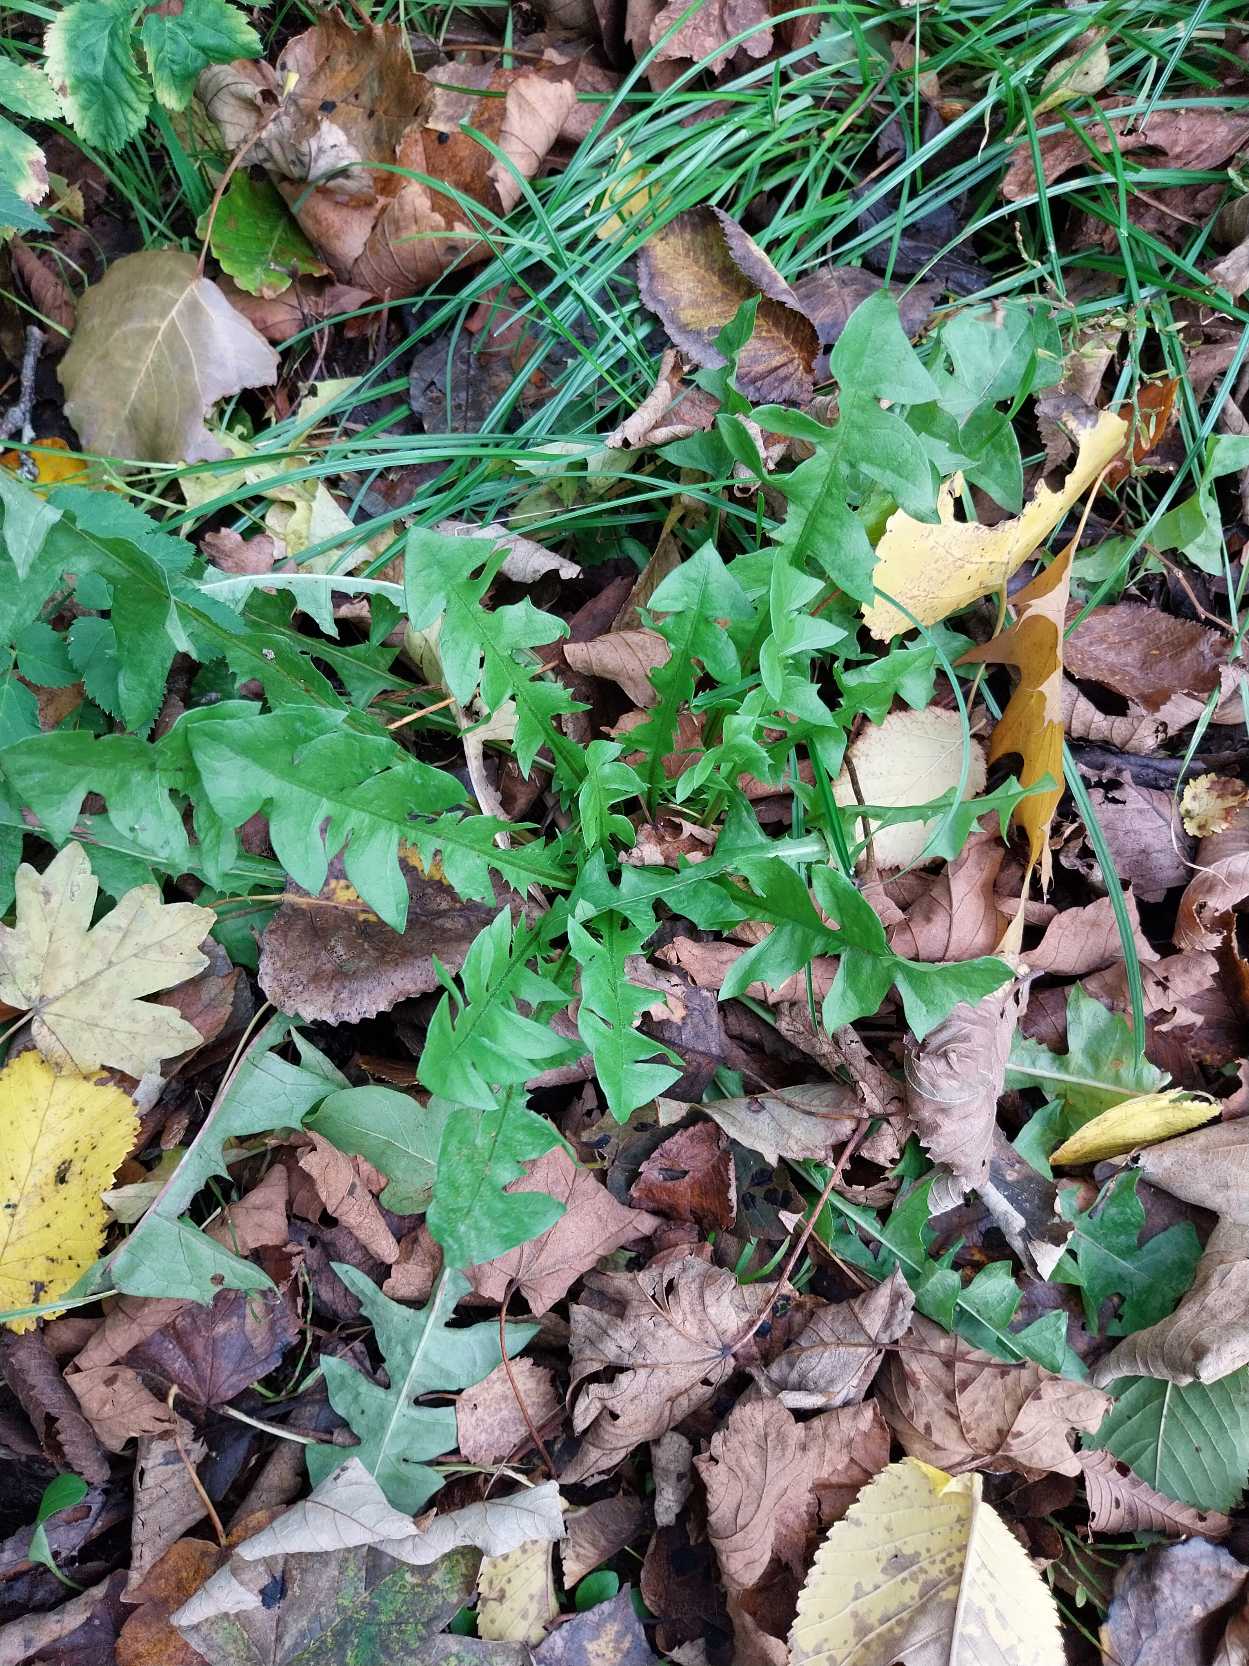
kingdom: Plantae
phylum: Tracheophyta
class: Magnoliopsida
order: Asterales
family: Asteraceae
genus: Taraxacum
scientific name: Taraxacum
